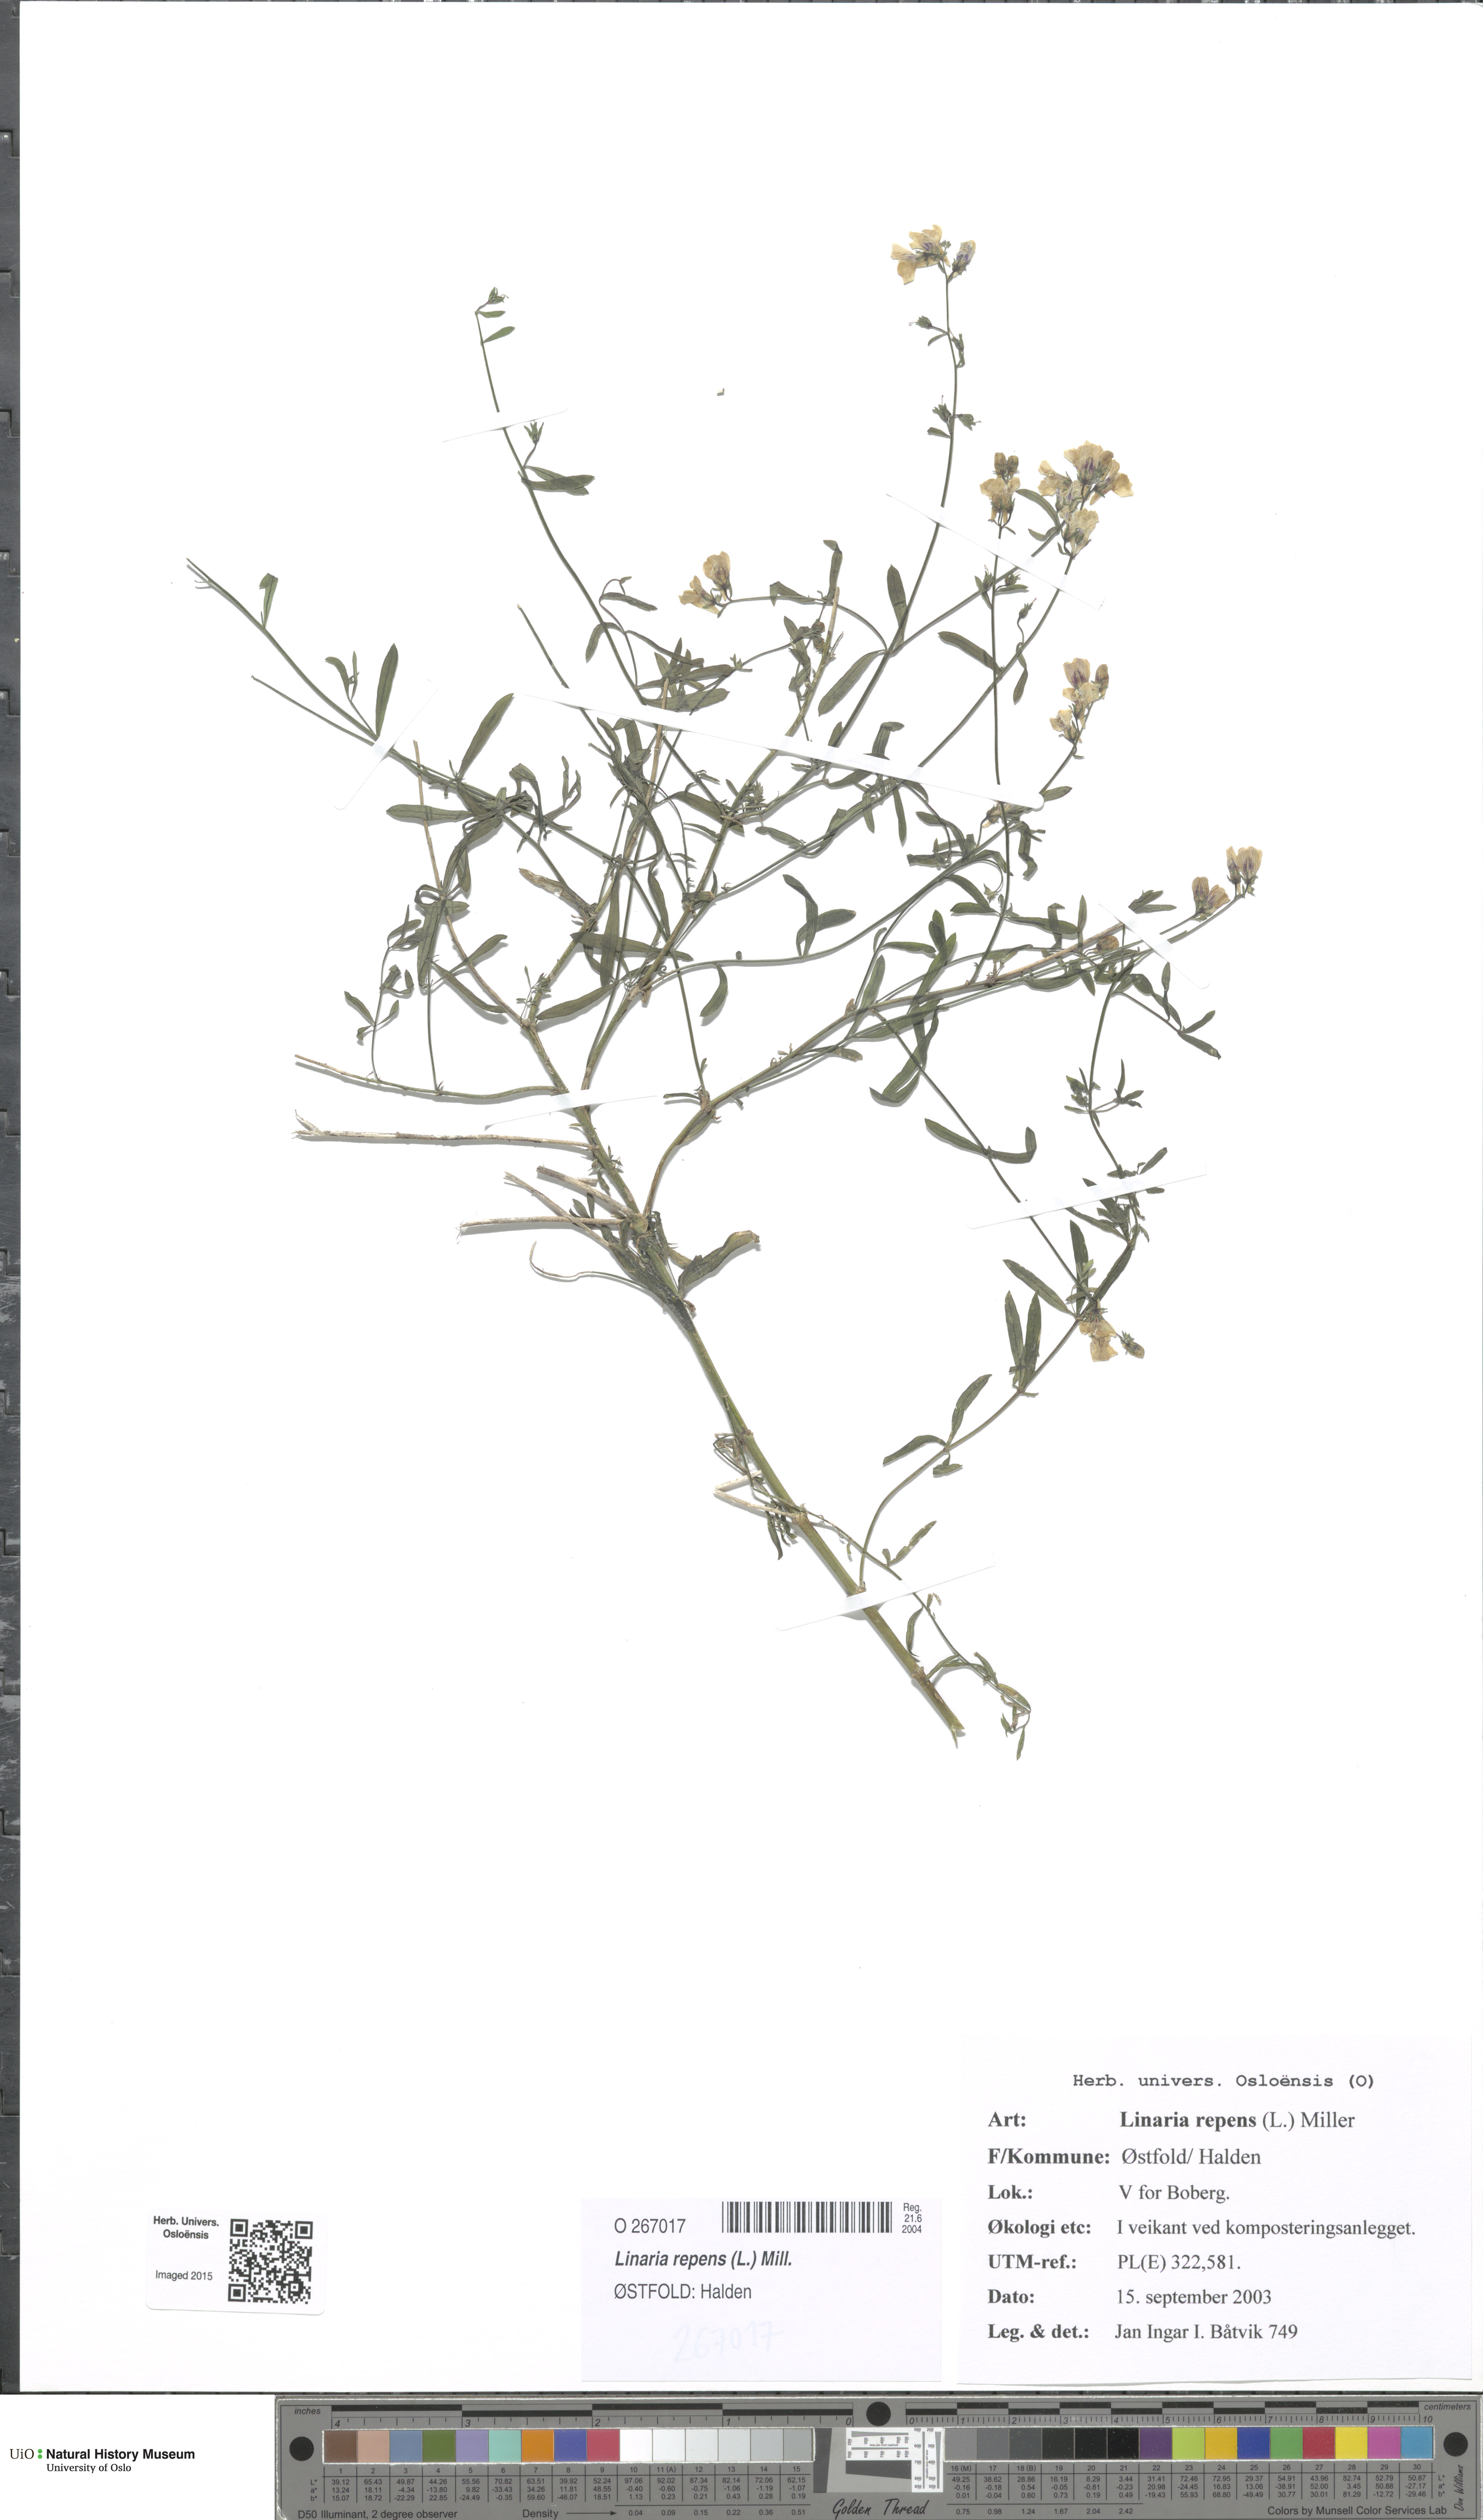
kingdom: Plantae
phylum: Tracheophyta
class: Magnoliopsida
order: Lamiales
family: Plantaginaceae
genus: Linaria
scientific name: Linaria repens
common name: Pale toadflax
